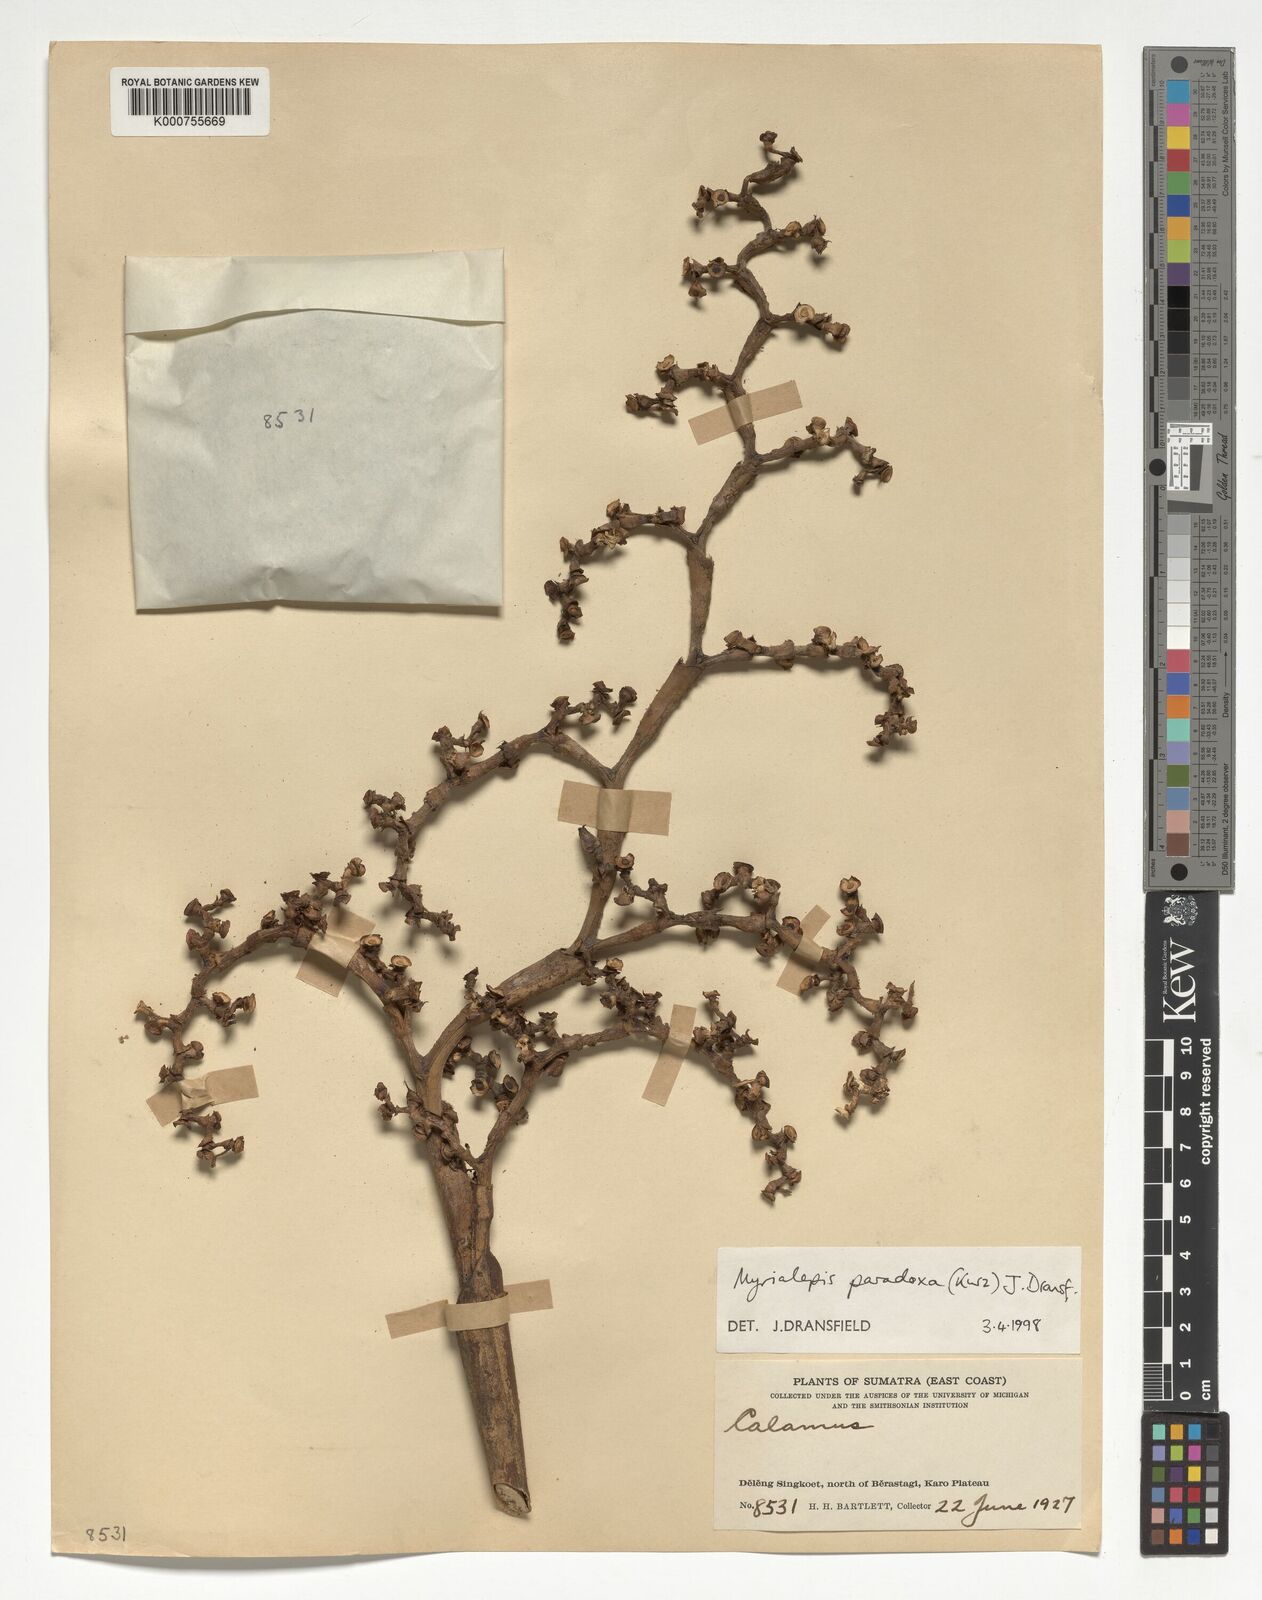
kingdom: Plantae
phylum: Tracheophyta
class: Liliopsida
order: Arecales
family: Arecaceae
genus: Myrialepis
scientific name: Myrialepis paradoxa
